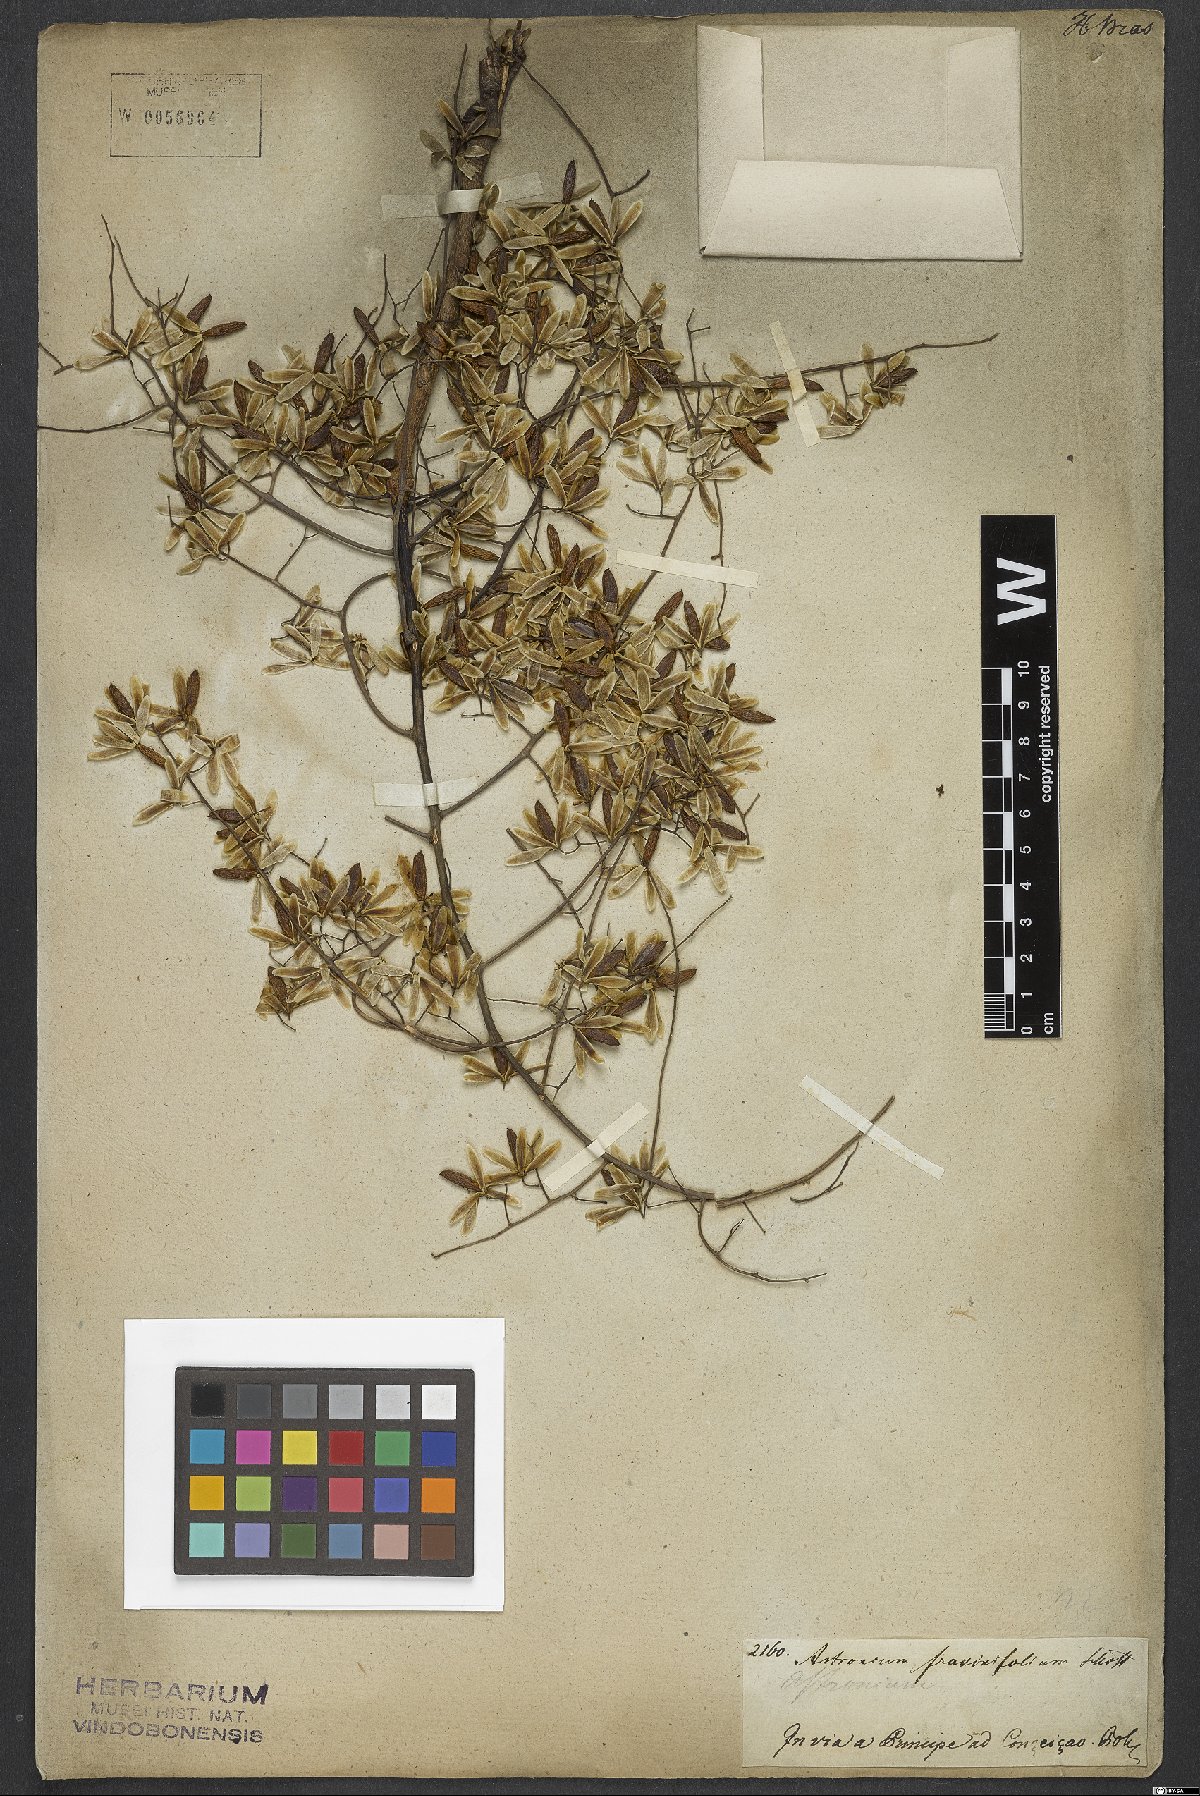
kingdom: Plantae
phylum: Tracheophyta
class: Magnoliopsida
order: Sapindales
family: Anacardiaceae
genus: Astronium
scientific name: Astronium fraxinifolium
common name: Tigerwood
